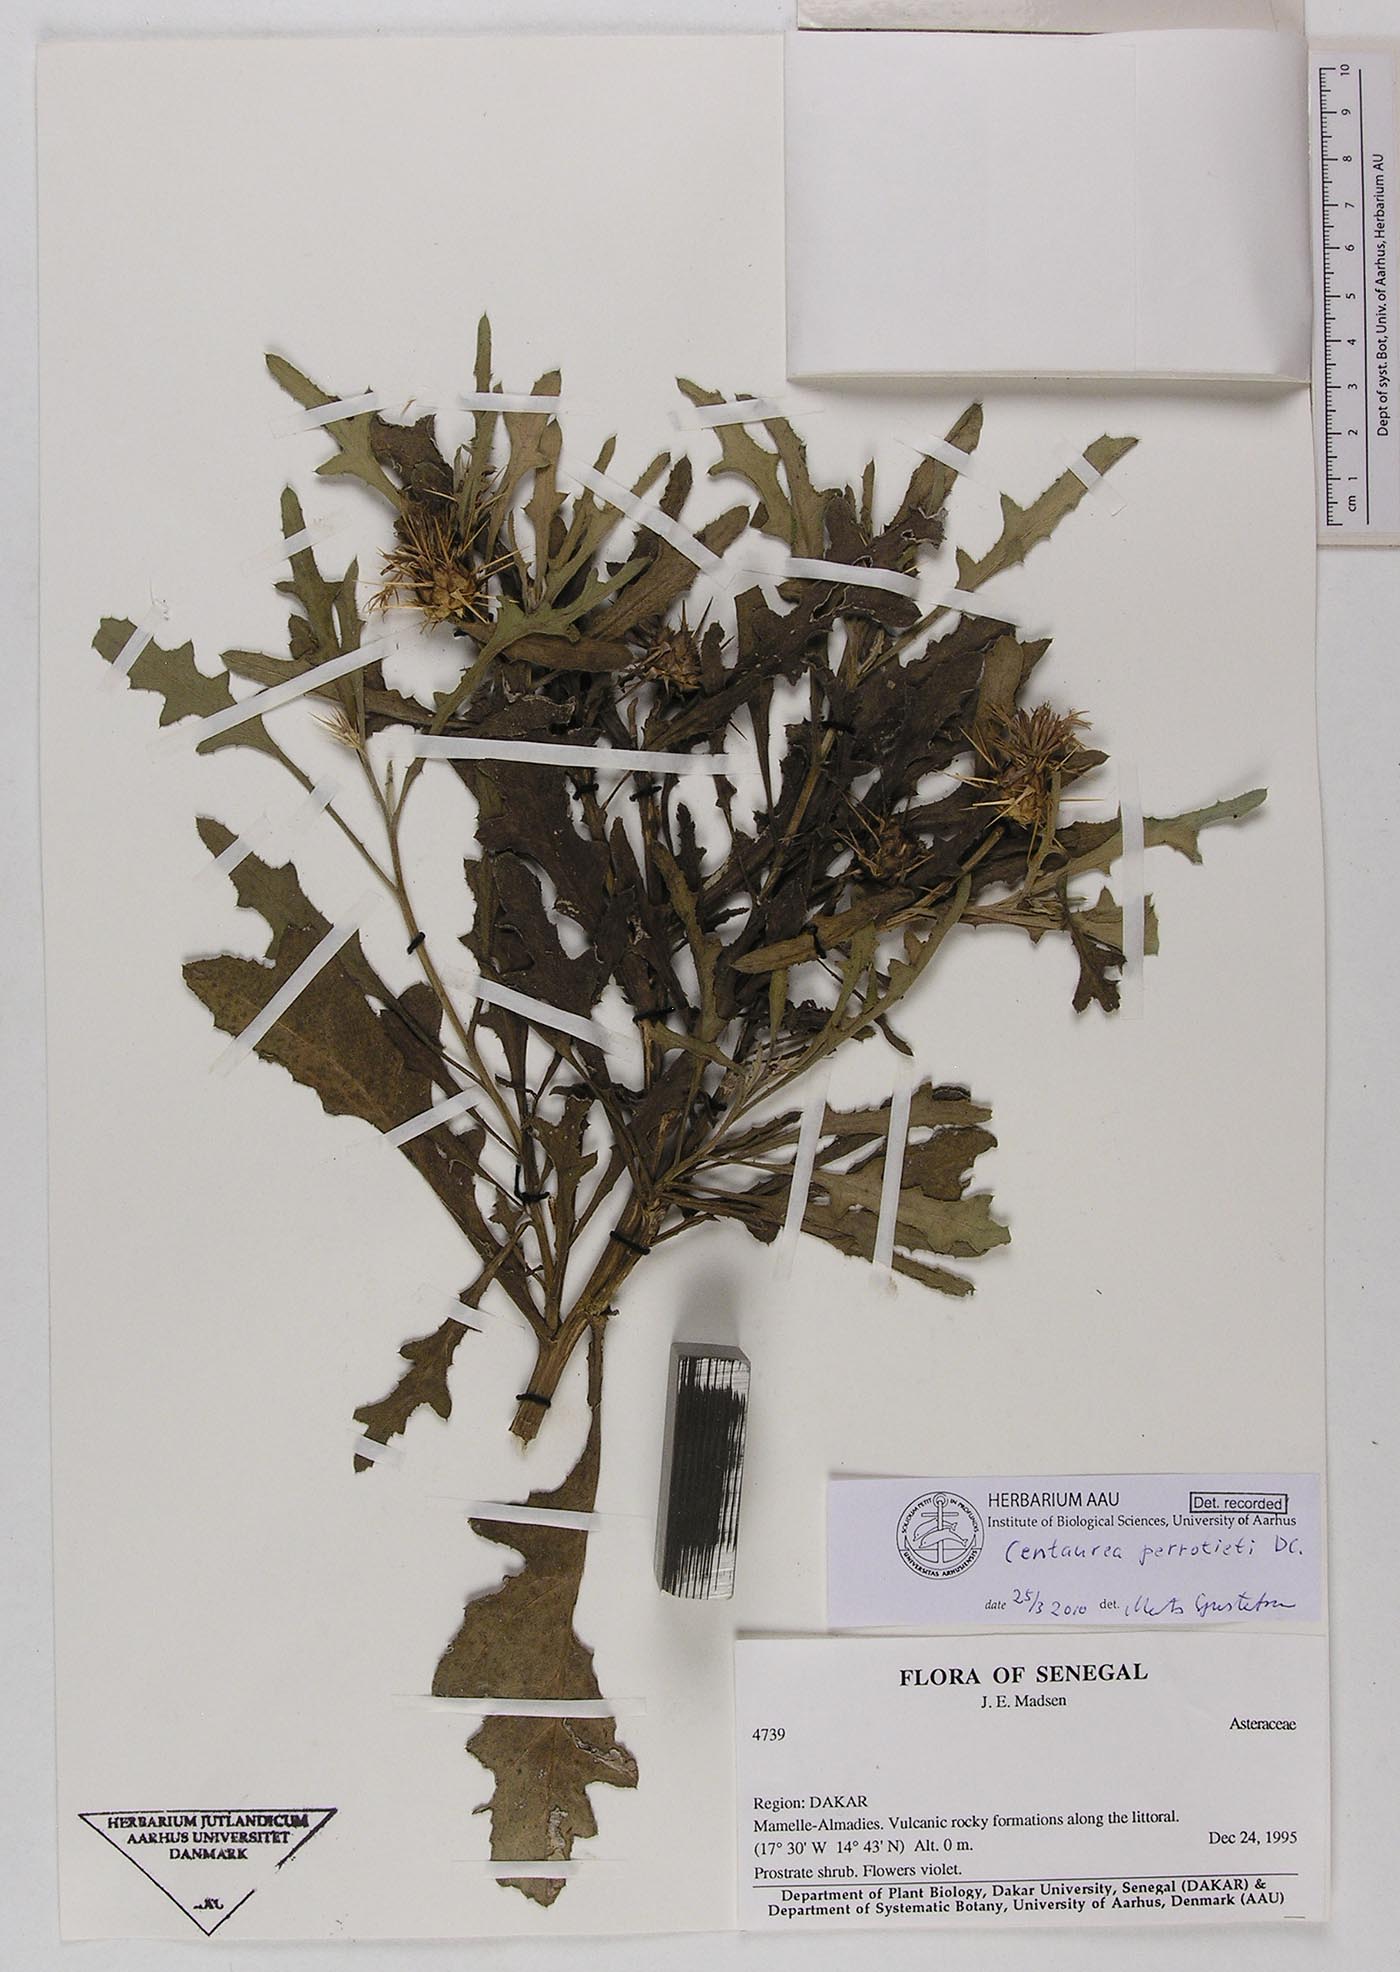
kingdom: Plantae
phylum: Tracheophyta
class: Magnoliopsida
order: Asterales
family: Asteraceae
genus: Centaurea
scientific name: Centaurea perrottettii
